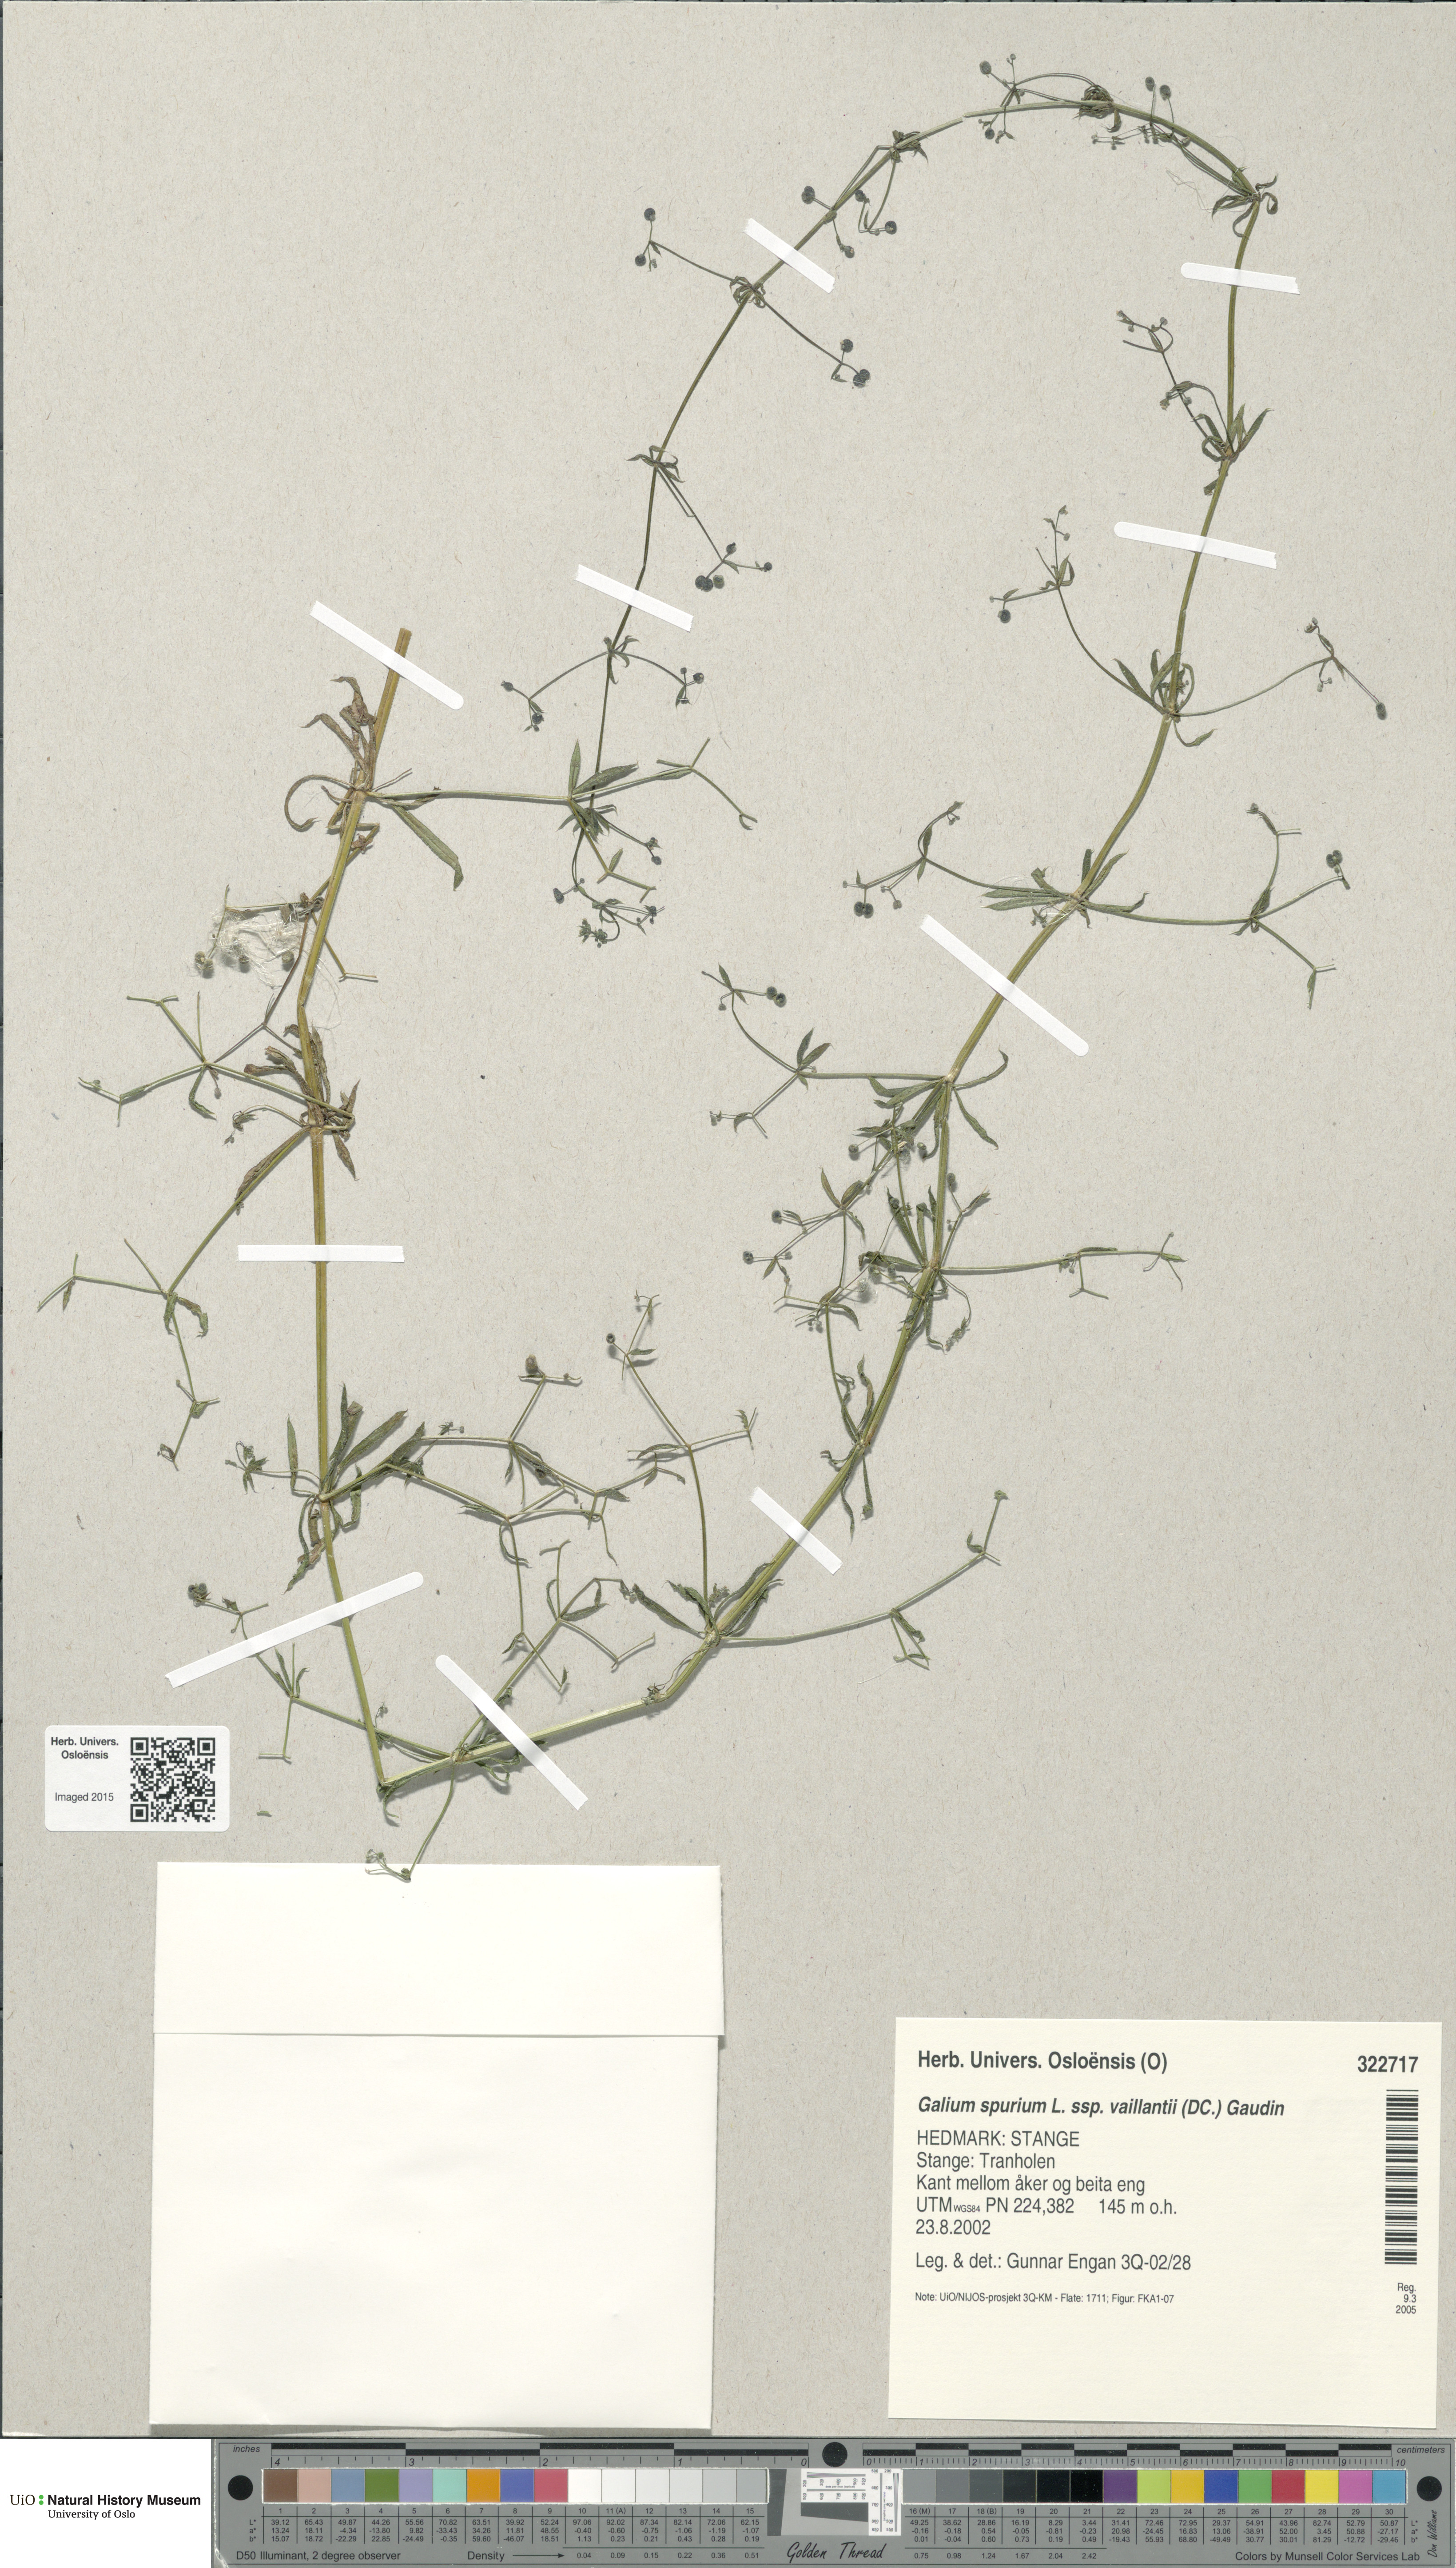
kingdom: Plantae
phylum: Tracheophyta
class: Magnoliopsida
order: Gentianales
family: Rubiaceae
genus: Galium
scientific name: Galium spurium
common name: False cleavers
